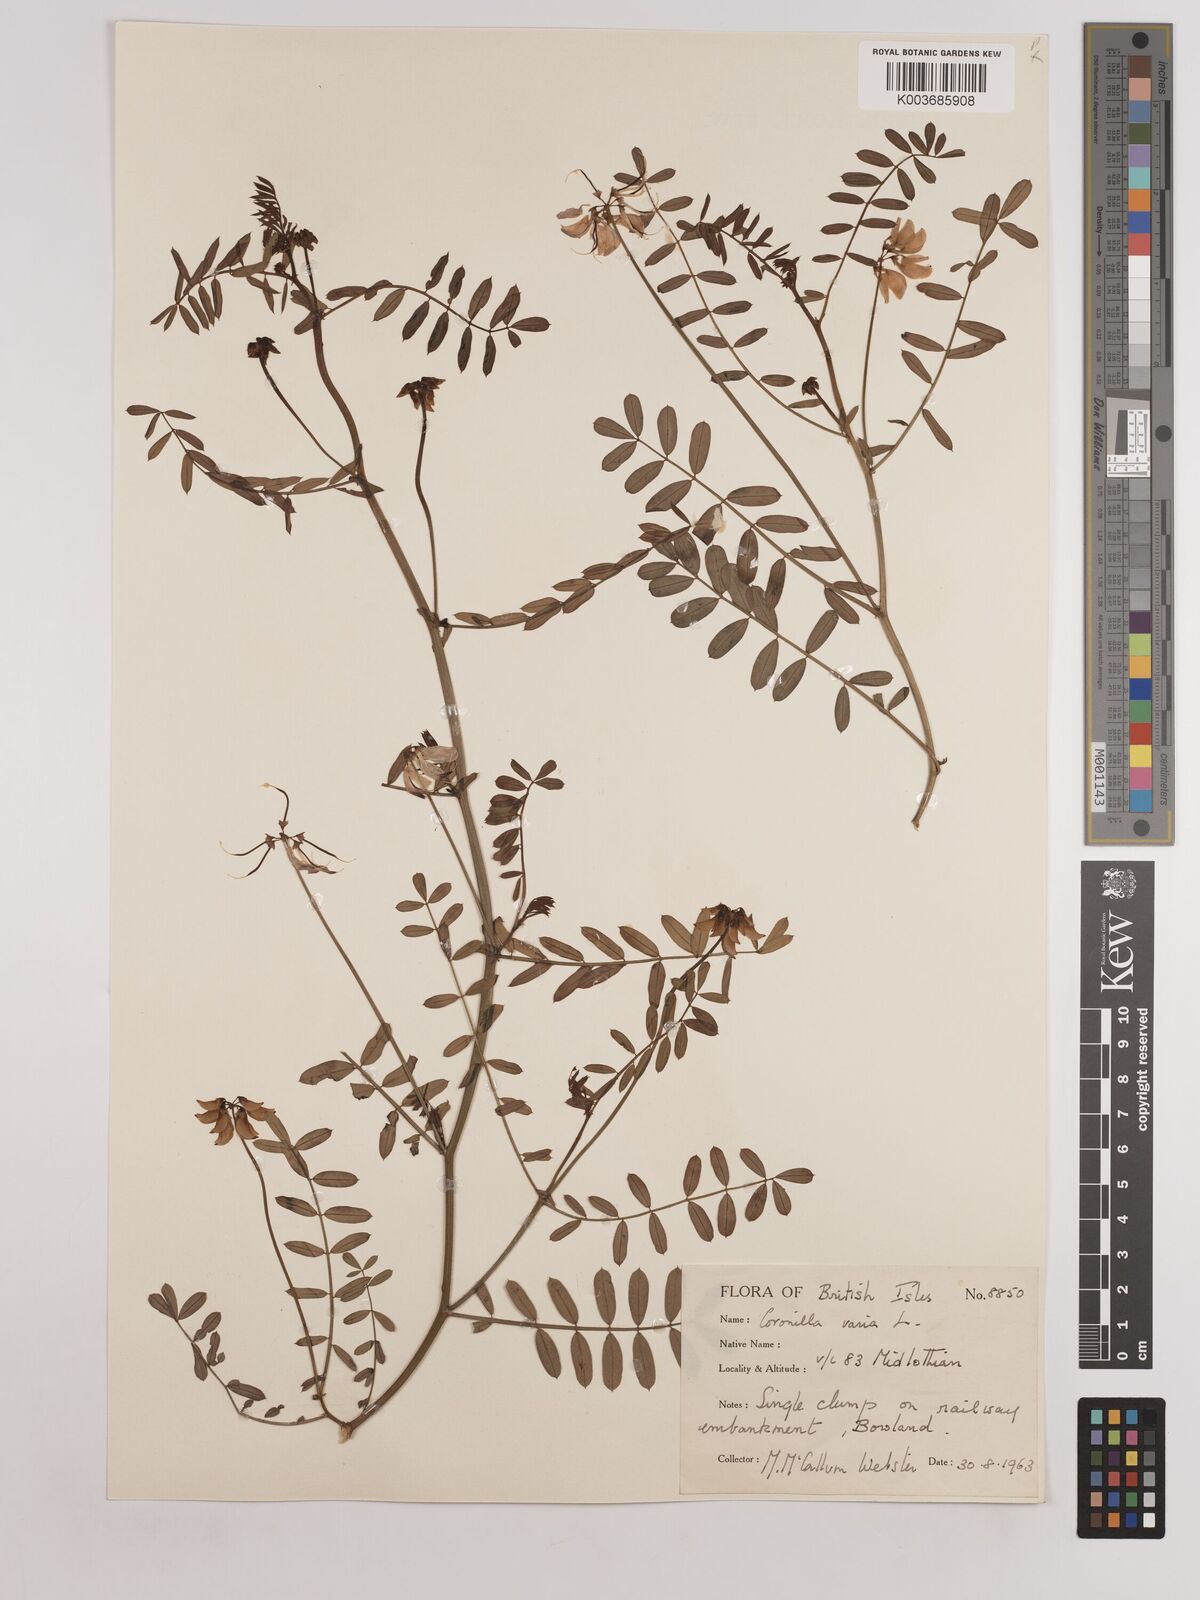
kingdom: Plantae
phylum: Tracheophyta
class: Magnoliopsida
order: Fabales
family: Fabaceae
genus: Coronilla
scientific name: Coronilla varia
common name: Crownvetch
